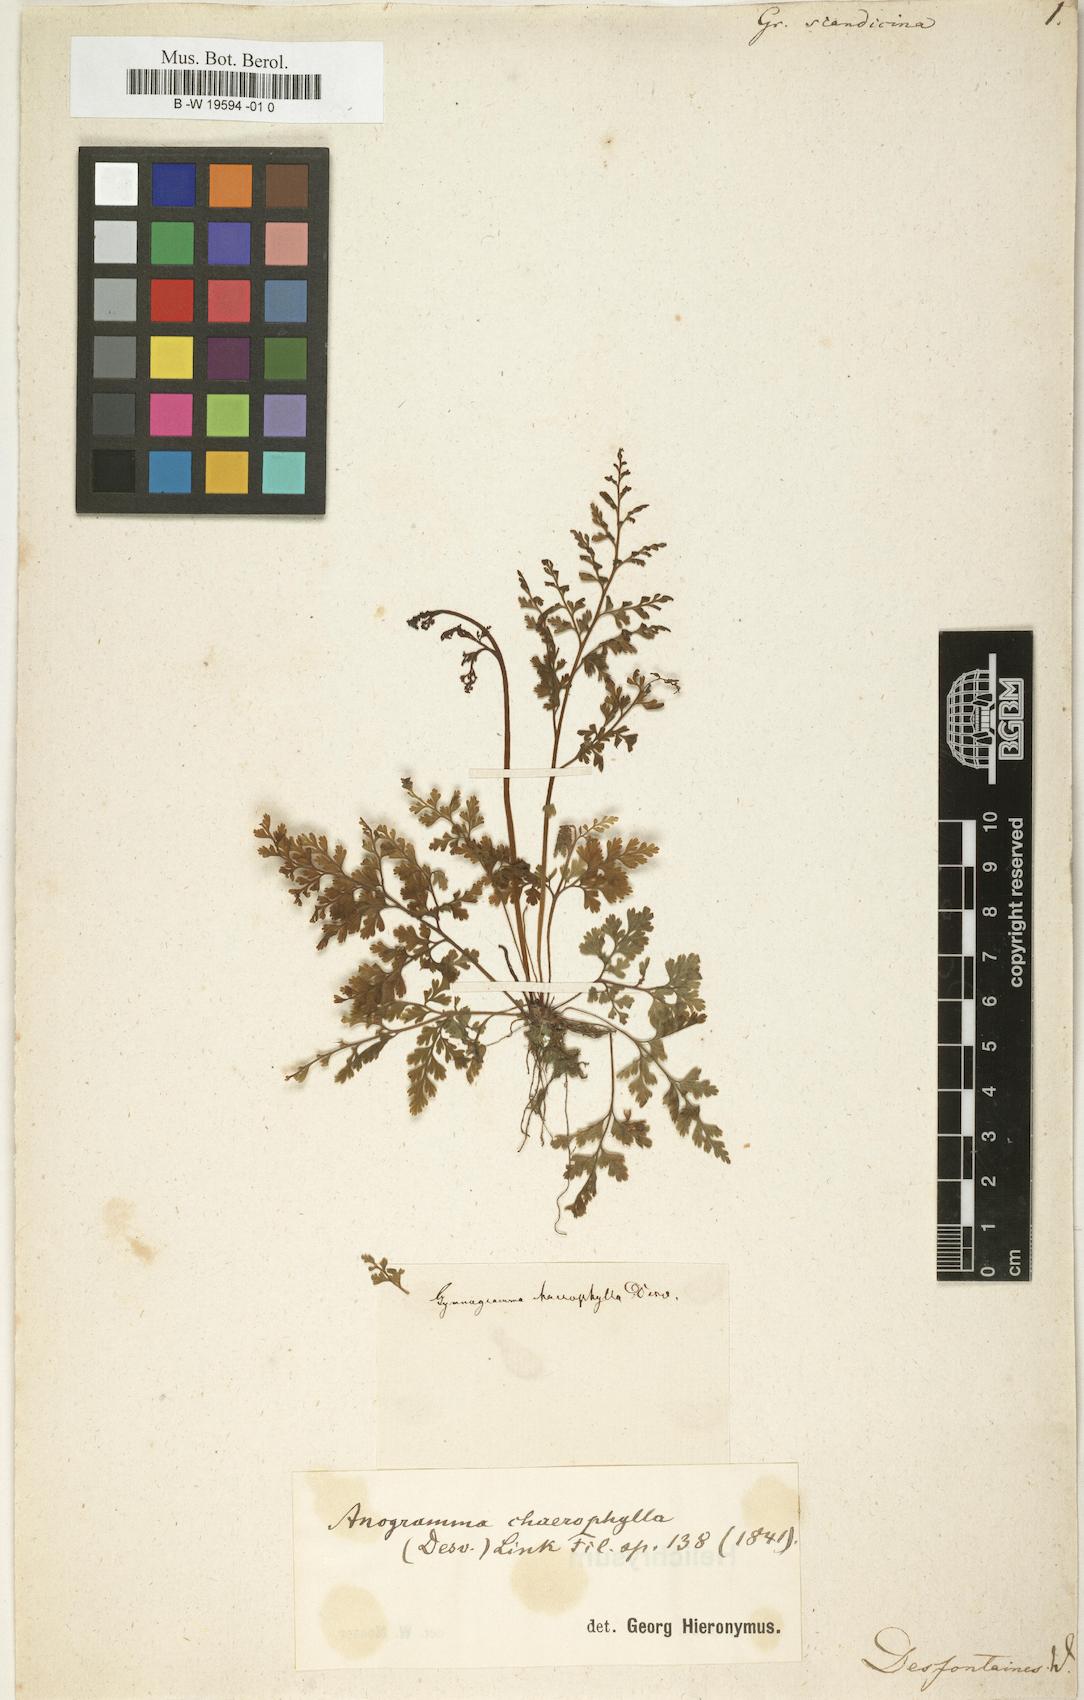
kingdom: Plantae
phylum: Tracheophyta
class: Polypodiopsida
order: Polypodiales
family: Polypodiaceae
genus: Grammitis
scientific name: Grammitis
